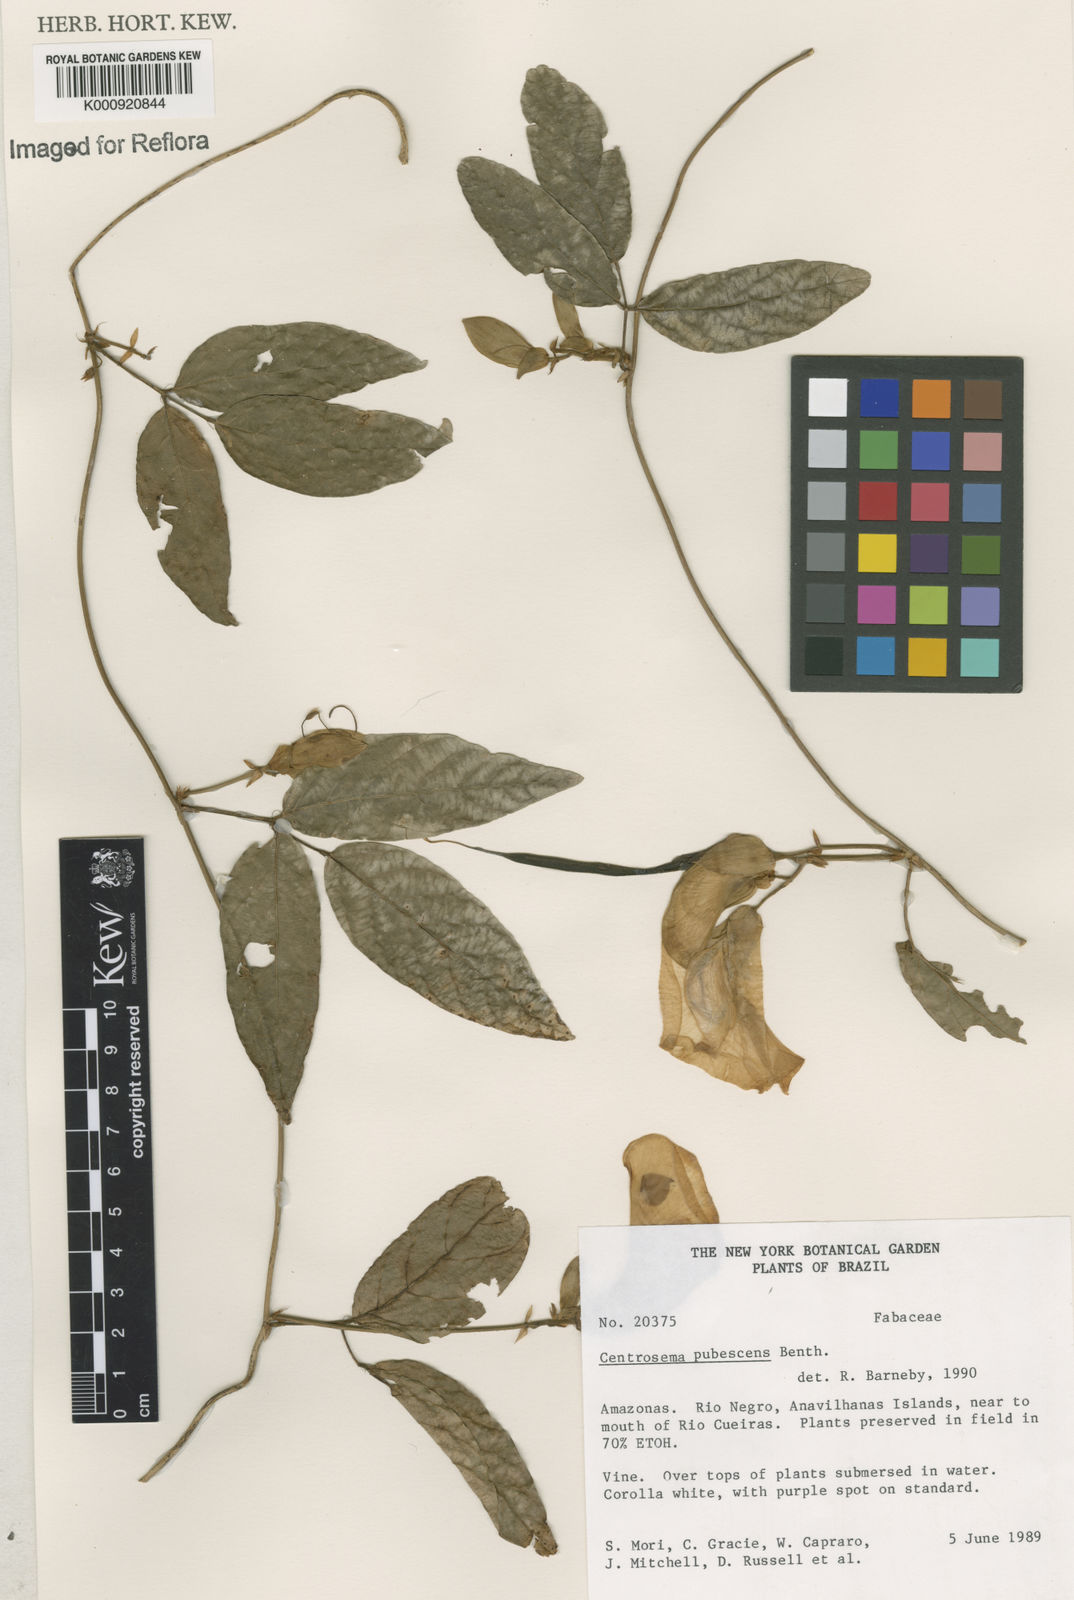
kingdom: Plantae
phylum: Tracheophyta
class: Magnoliopsida
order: Fabales
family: Fabaceae
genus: Centrosema
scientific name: Centrosema pubescens
